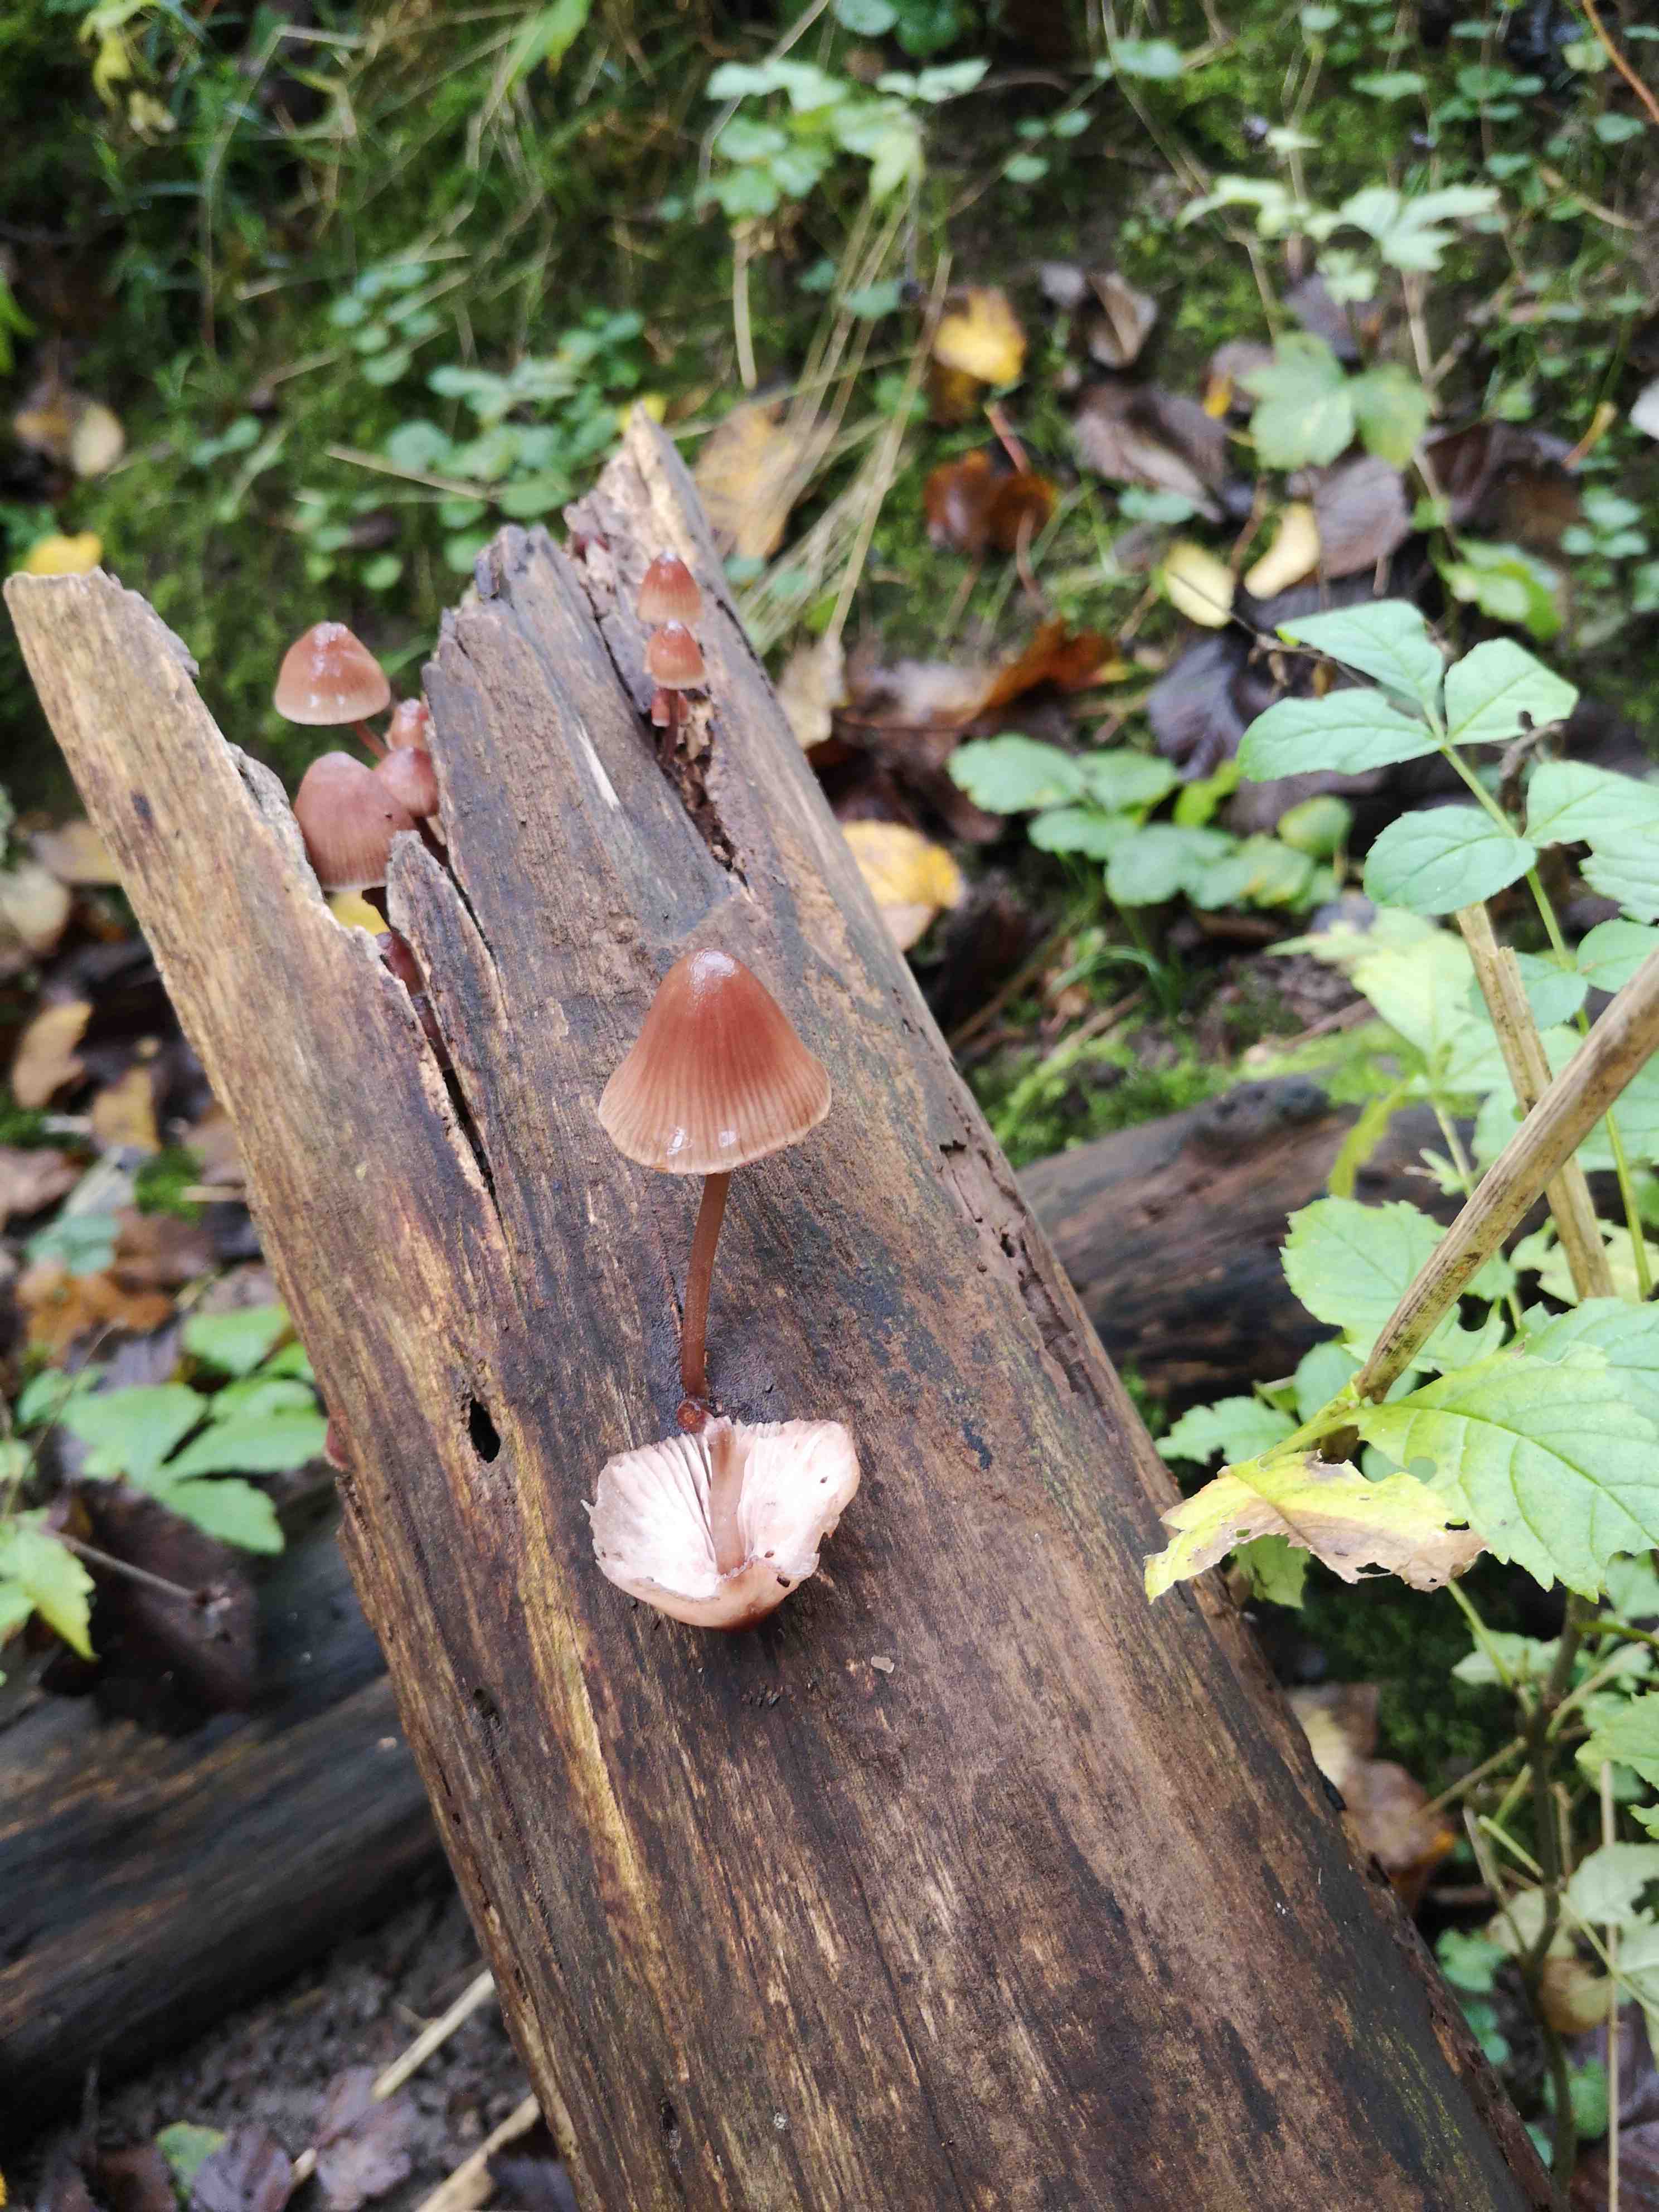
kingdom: Fungi
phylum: Basidiomycota
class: Agaricomycetes
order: Agaricales
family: Mycenaceae
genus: Mycena
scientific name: Mycena haematopus
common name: blødende huesvamp
